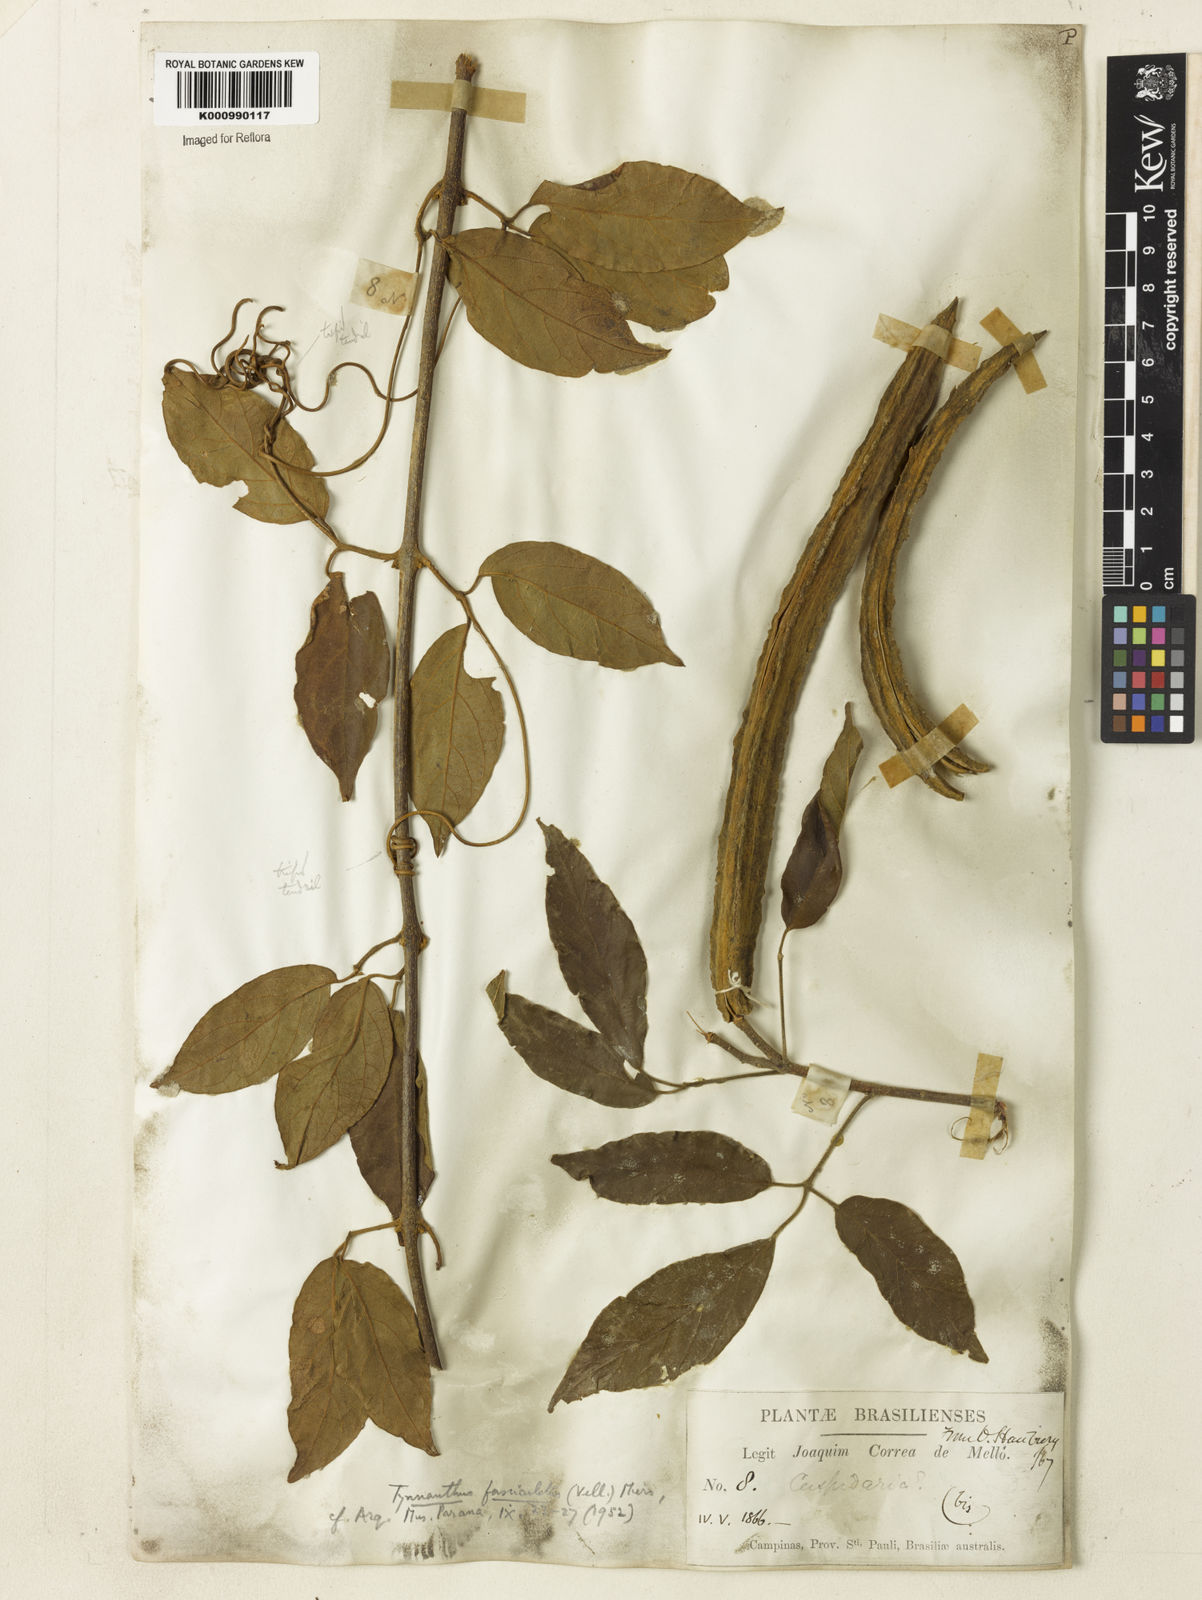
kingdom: Plantae
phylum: Tracheophyta
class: Magnoliopsida
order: Lamiales
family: Bignoniaceae
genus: Tynanthus
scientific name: Tynanthus fasciculatus
